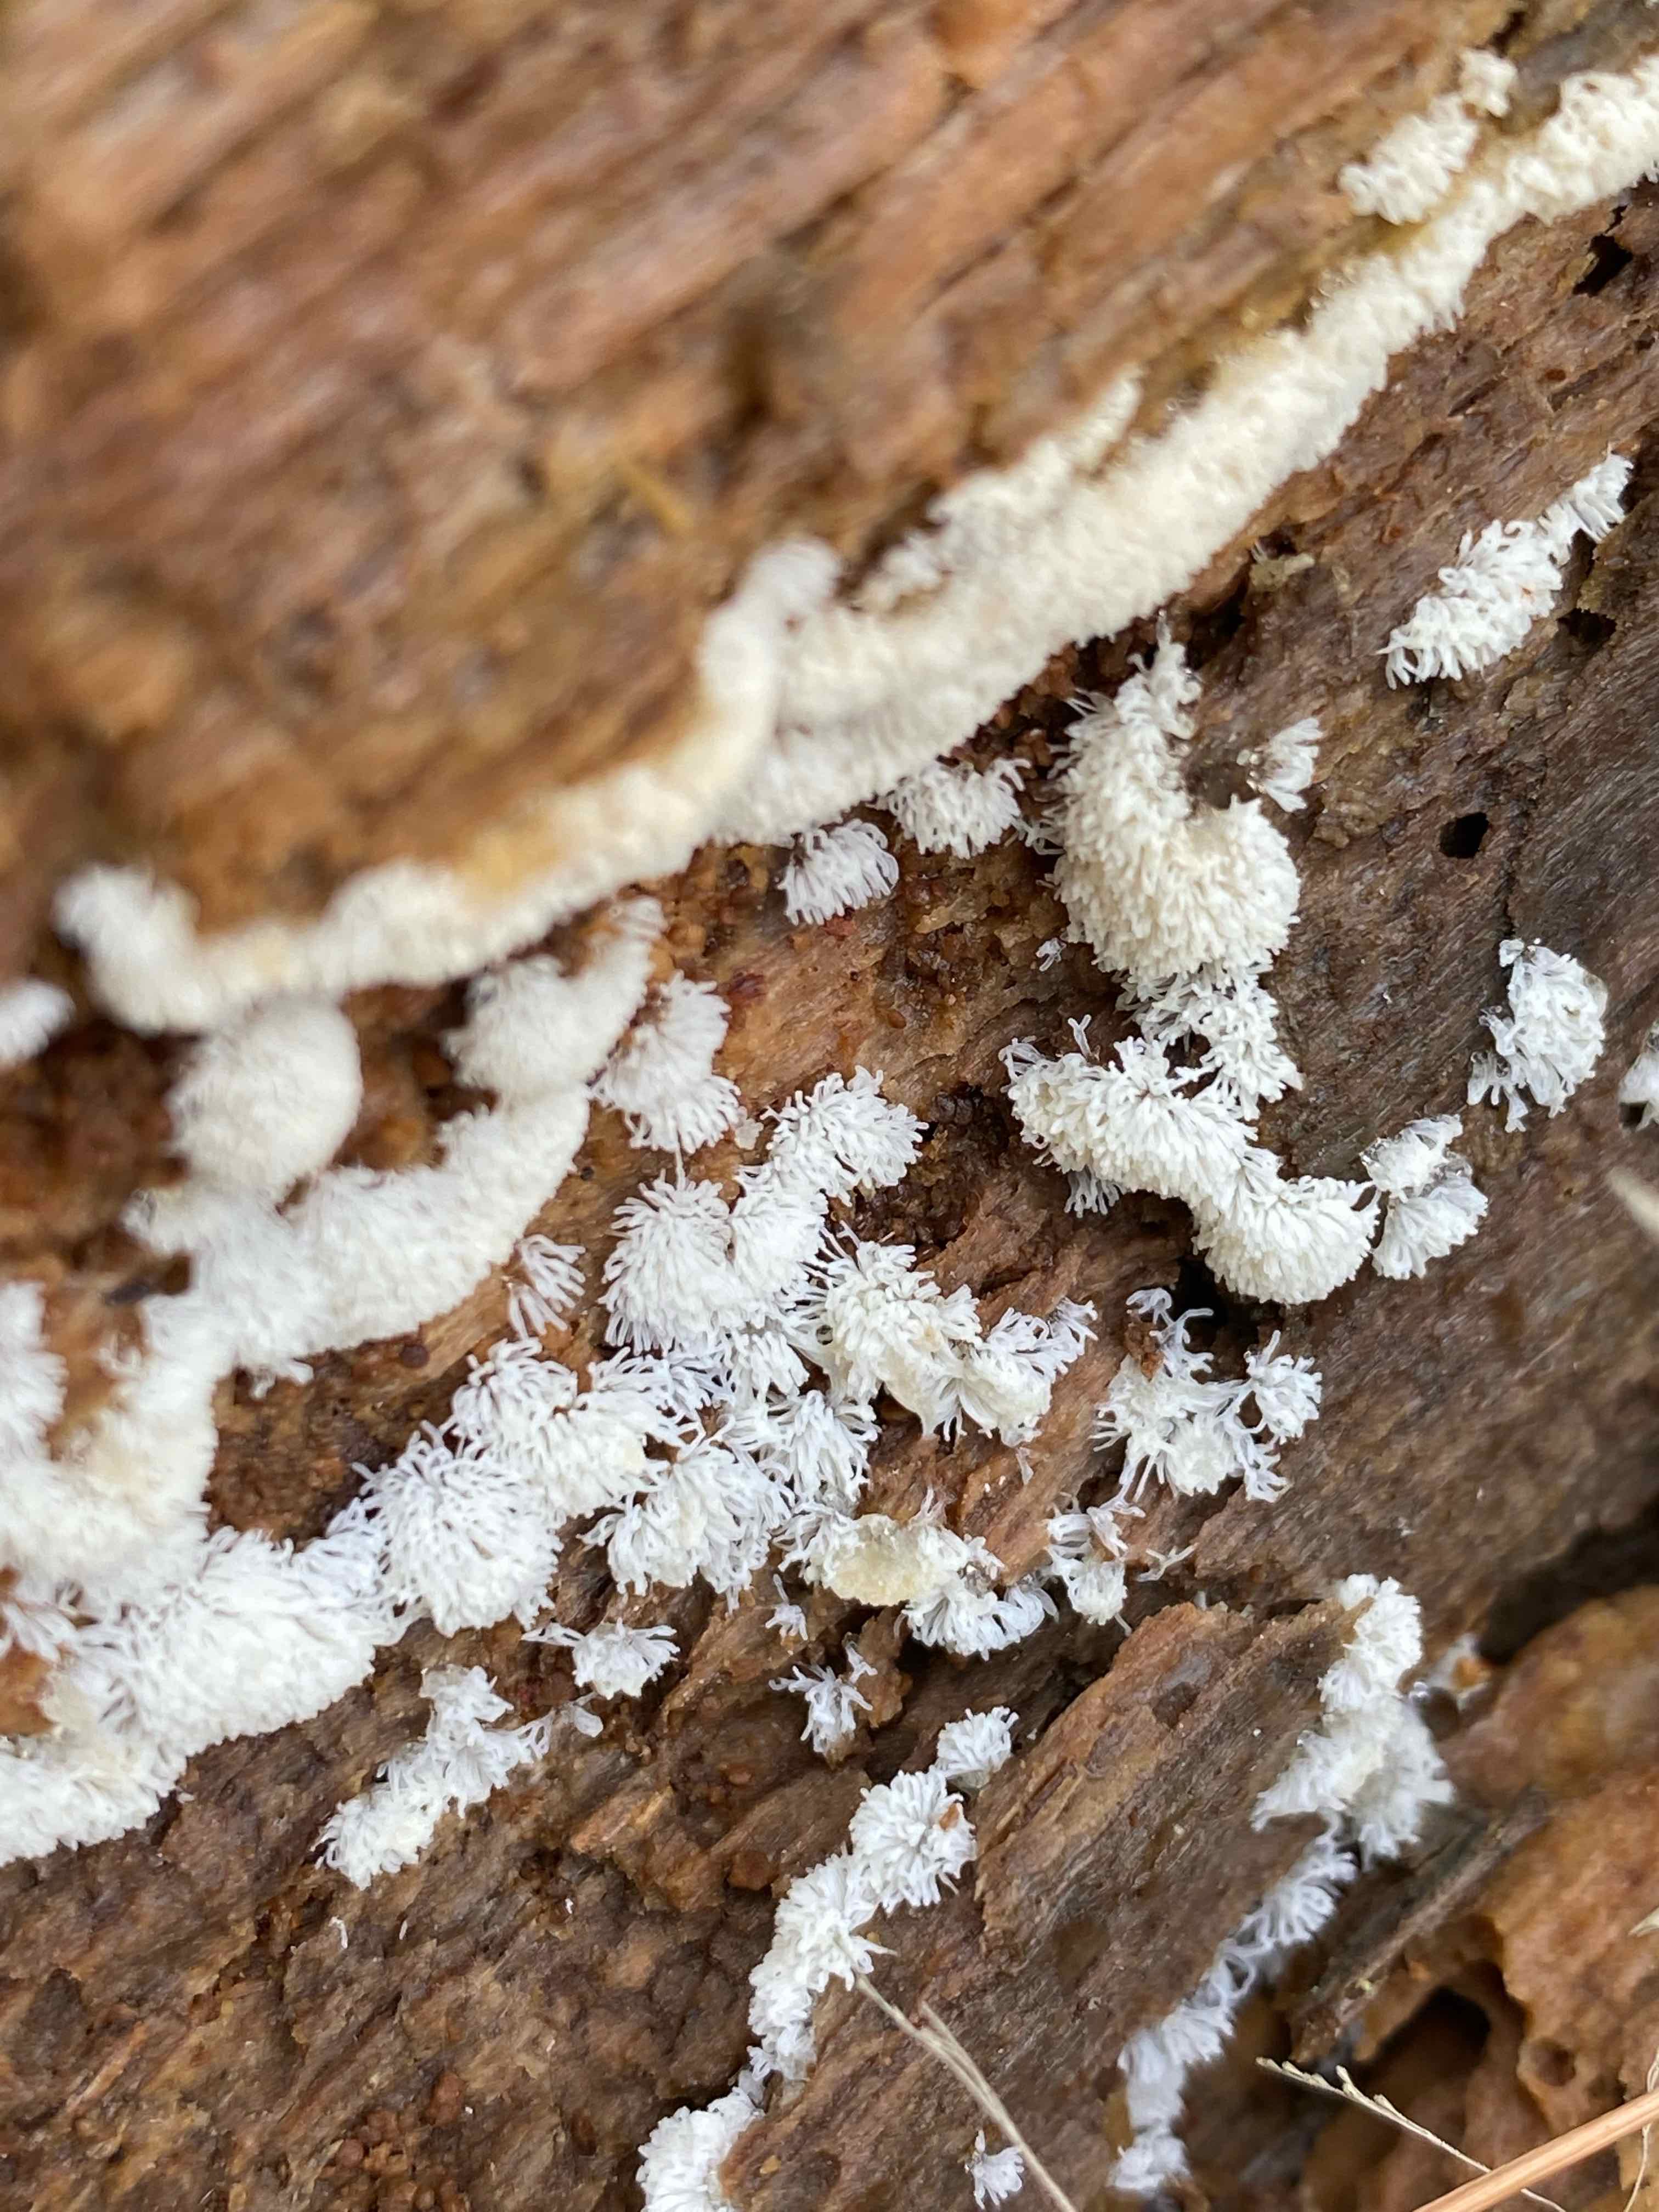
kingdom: Protozoa
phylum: Mycetozoa
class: Protosteliomycetes
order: Ceratiomyxales
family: Ceratiomyxaceae
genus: Ceratiomyxa
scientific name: Ceratiomyxa fruticulosa
